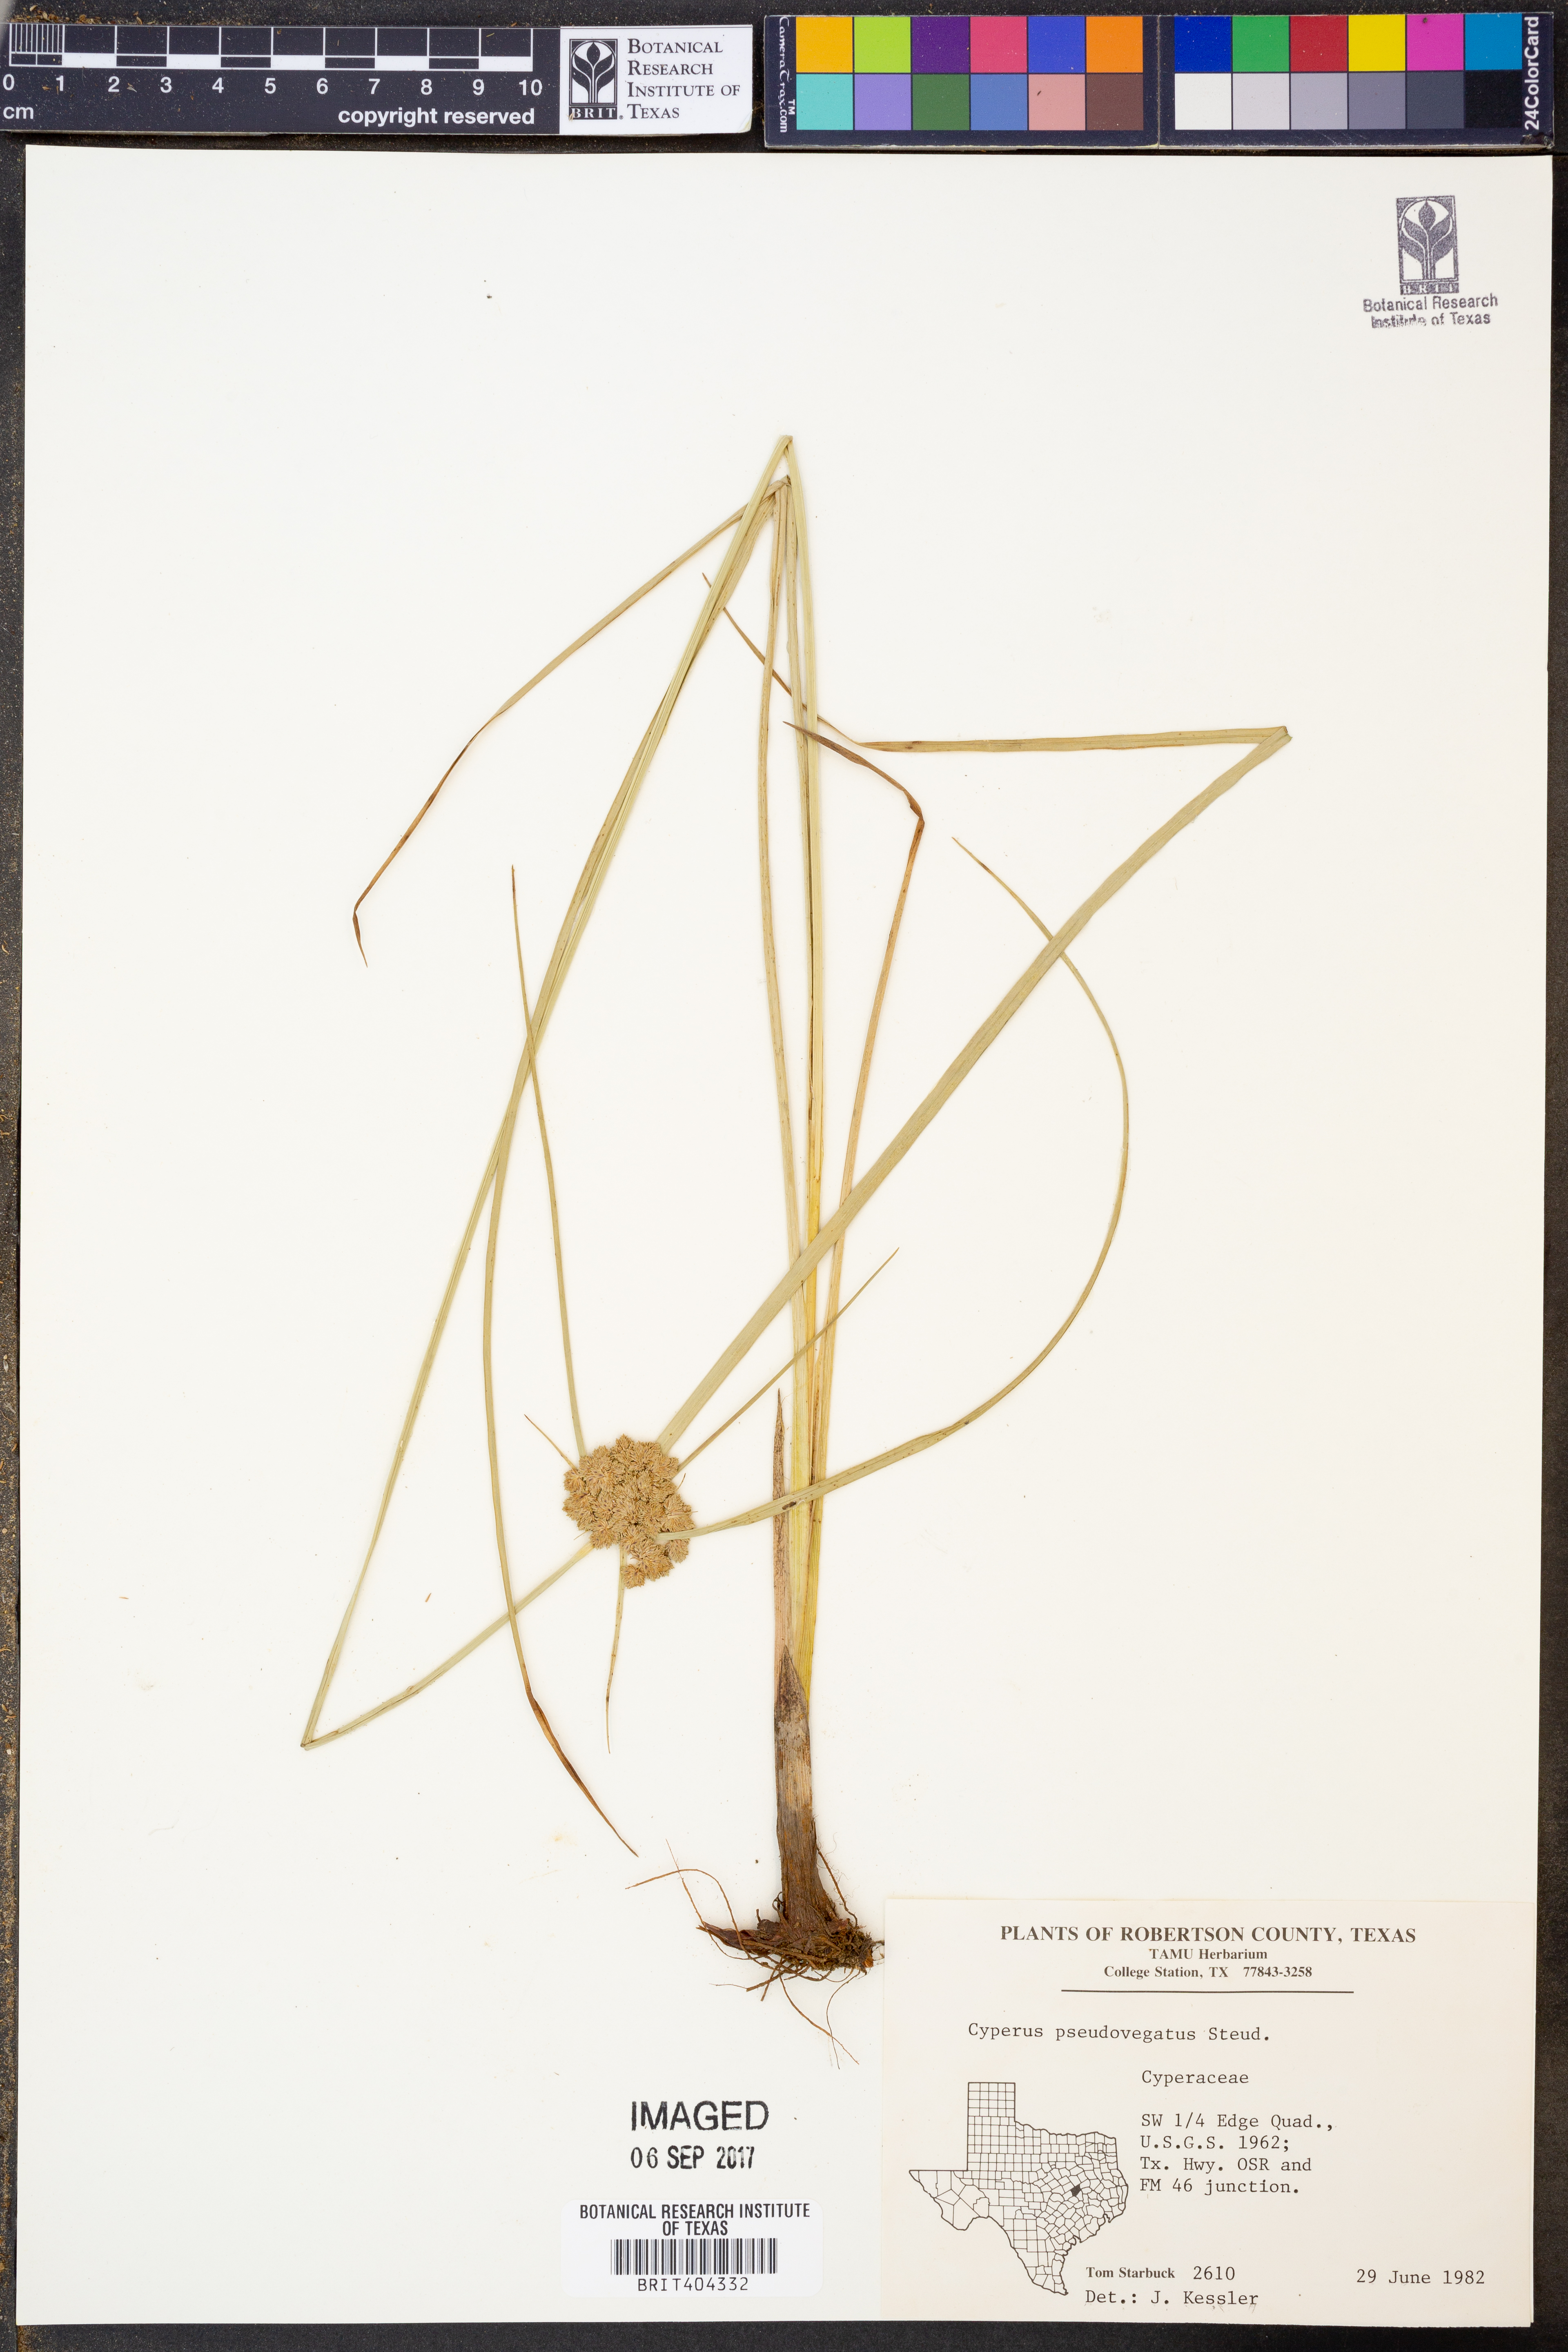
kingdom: Plantae
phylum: Tracheophyta
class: Liliopsida
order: Poales
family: Cyperaceae
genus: Cyperus
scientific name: Cyperus pseudovegetus
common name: Marsh flat sedge
